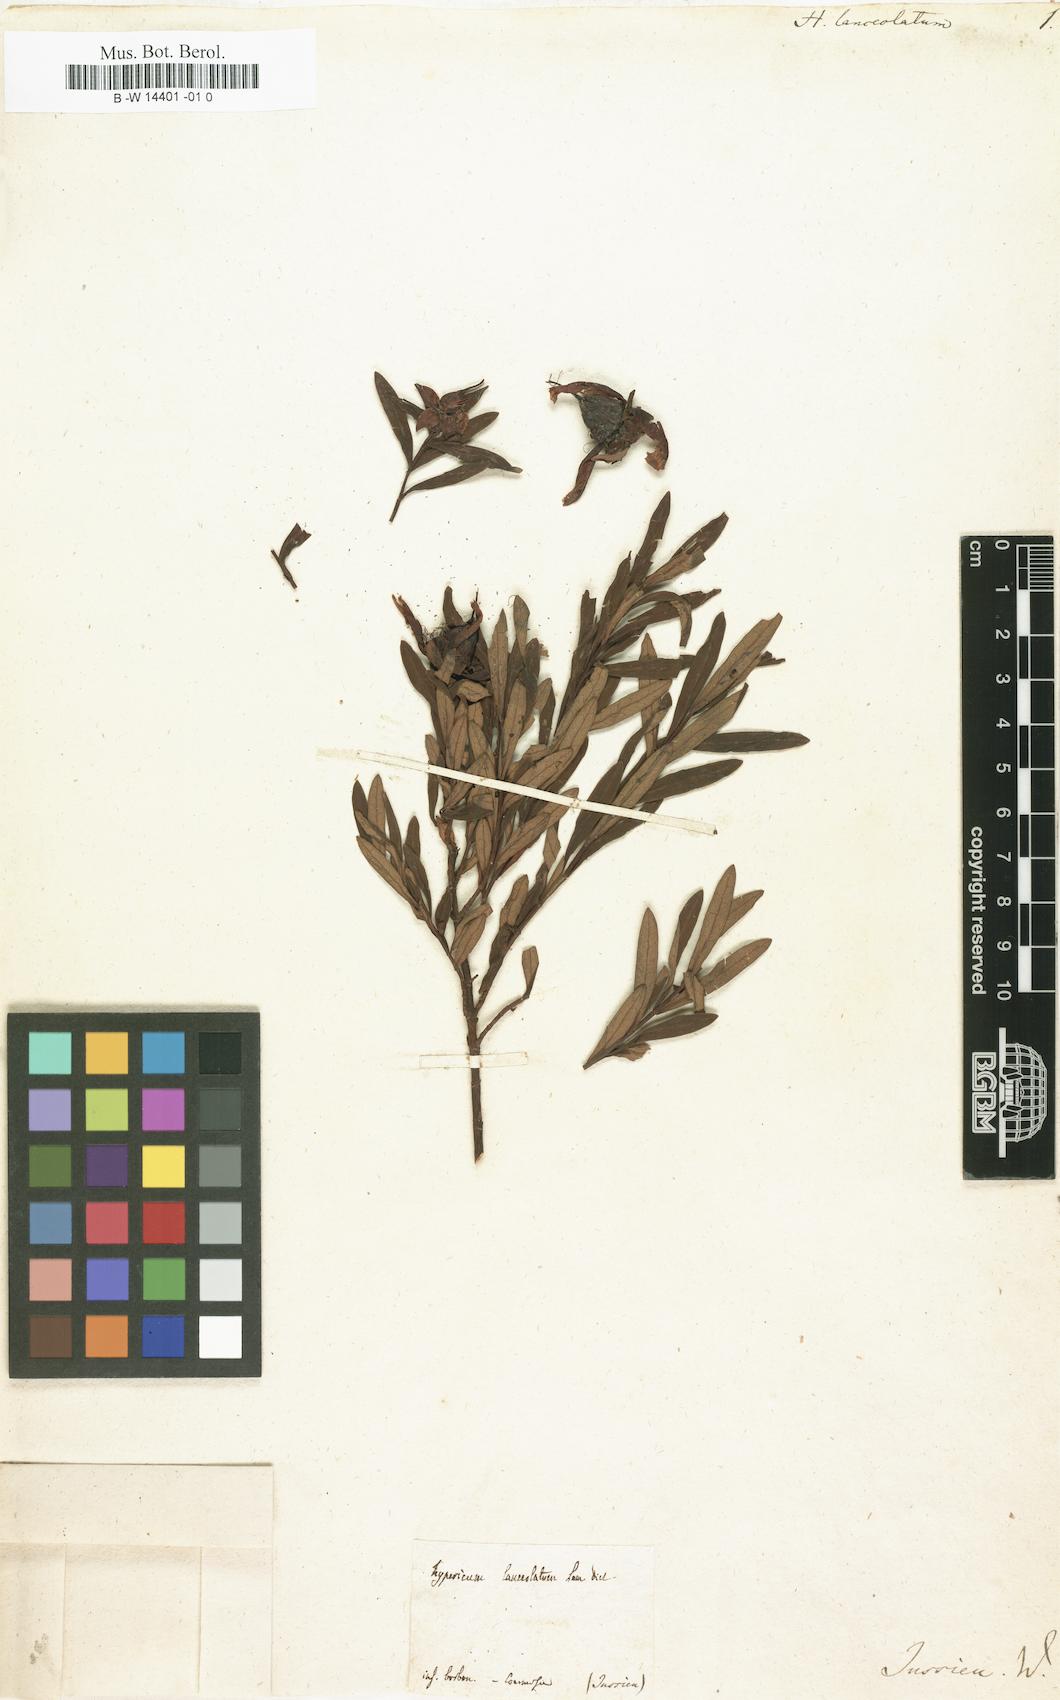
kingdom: Plantae
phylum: Tracheophyta
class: Magnoliopsida
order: Malpighiales
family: Hypericaceae
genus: Hypericum
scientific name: Hypericum lanceolatum
